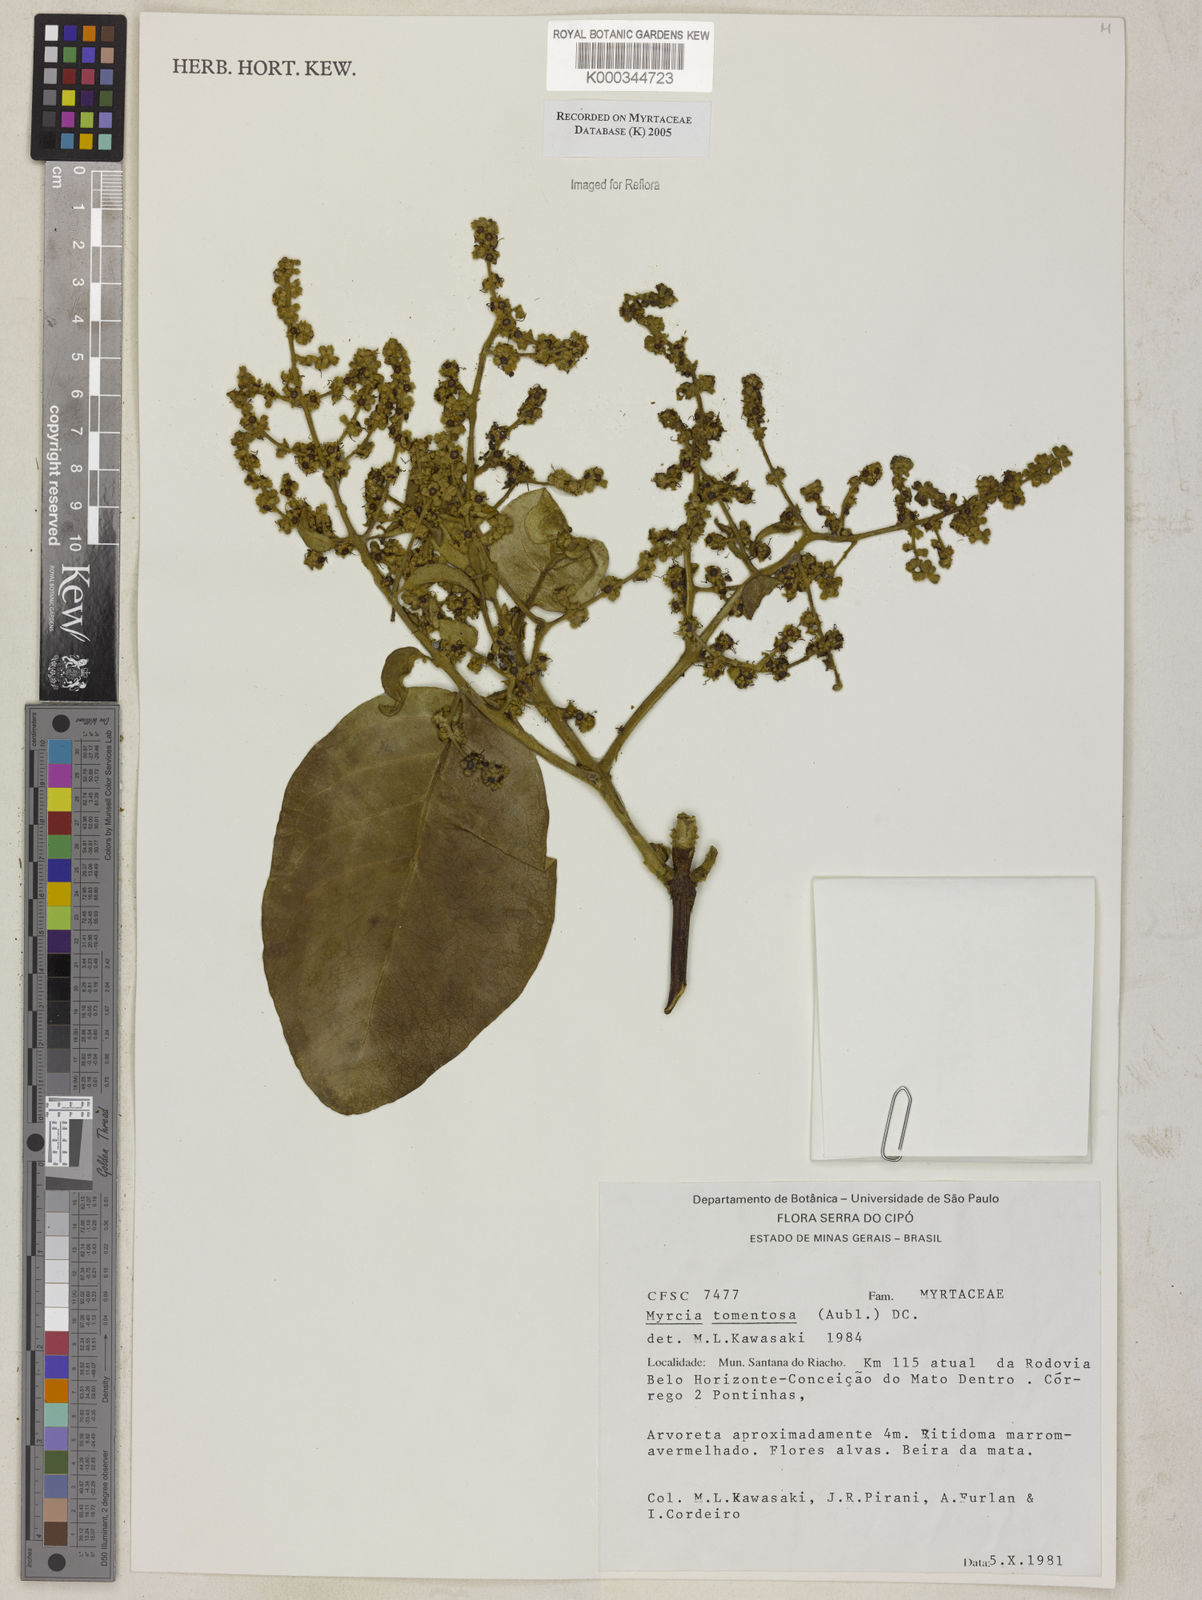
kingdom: Plantae
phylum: Tracheophyta
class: Magnoliopsida
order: Myrtales
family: Myrtaceae
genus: Myrcia
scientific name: Myrcia tomentosa
